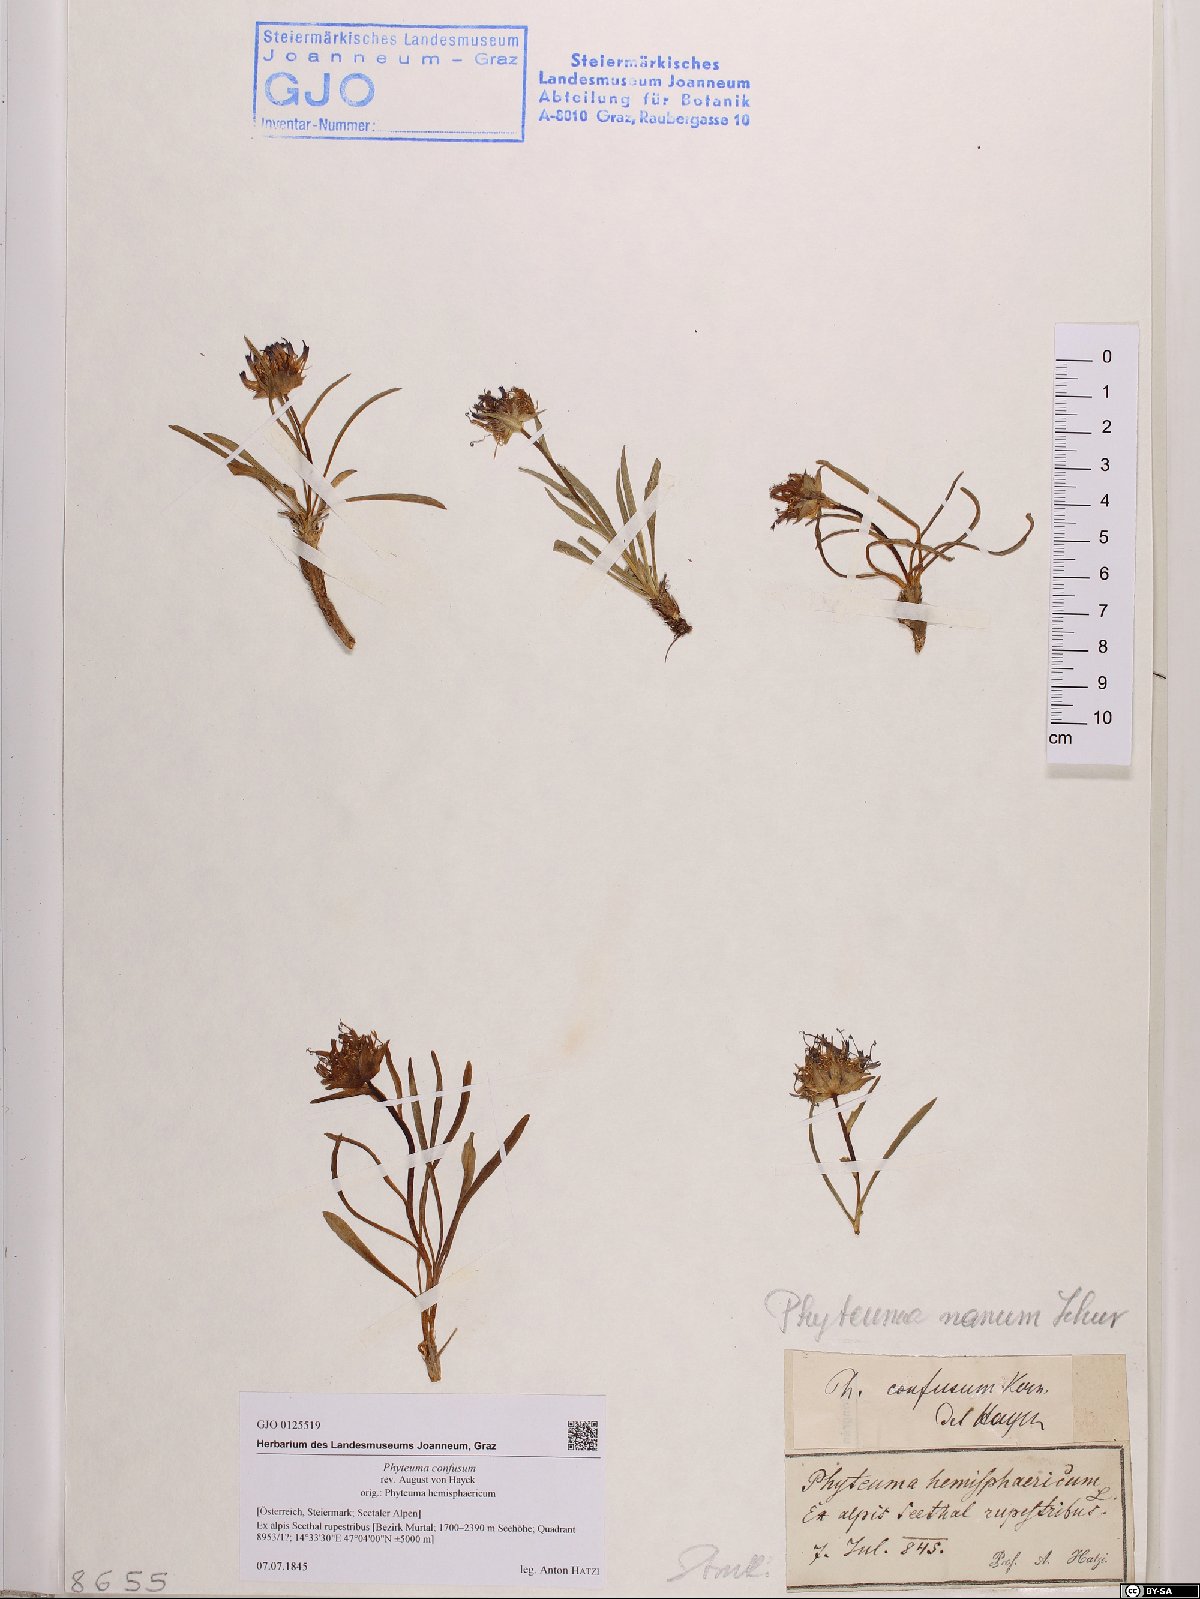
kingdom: Plantae
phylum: Tracheophyta
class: Magnoliopsida
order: Asterales
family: Campanulaceae
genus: Phyteuma
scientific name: Phyteuma confusum
